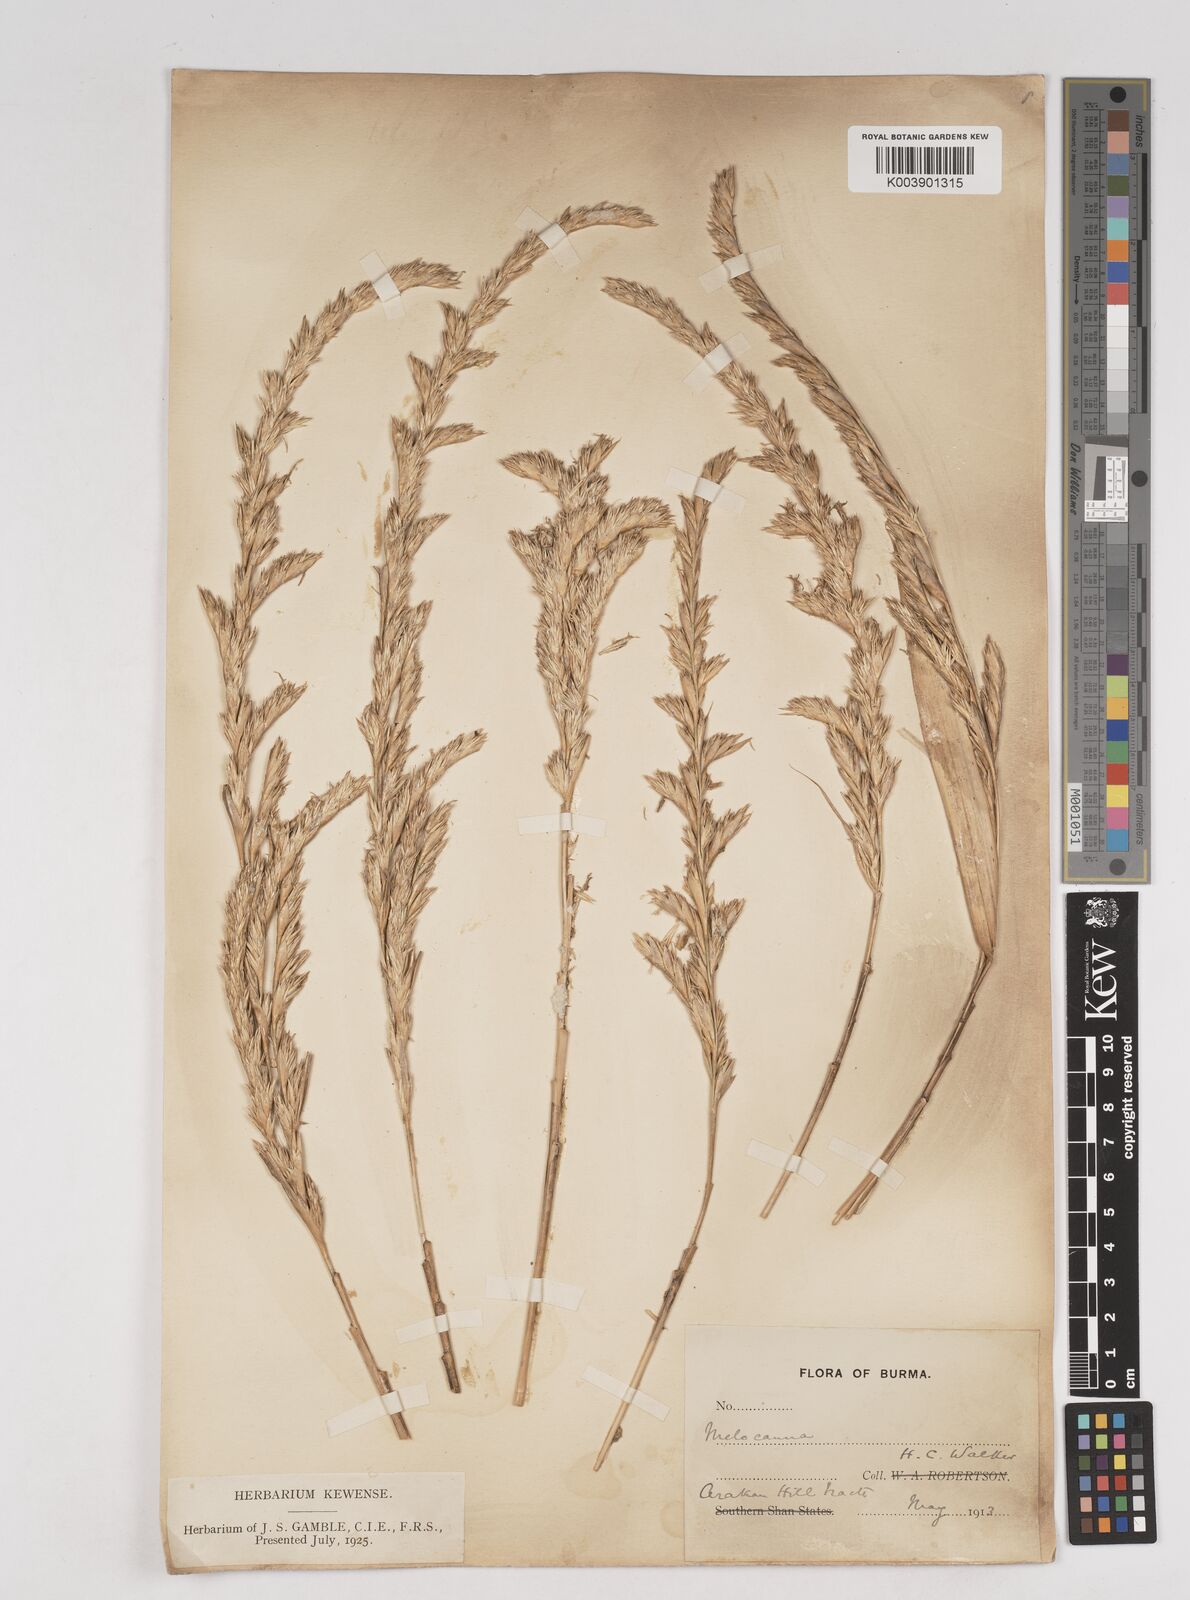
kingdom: Plantae
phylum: Tracheophyta
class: Liliopsida
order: Poales
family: Poaceae
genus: Melocanna
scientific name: Melocanna
